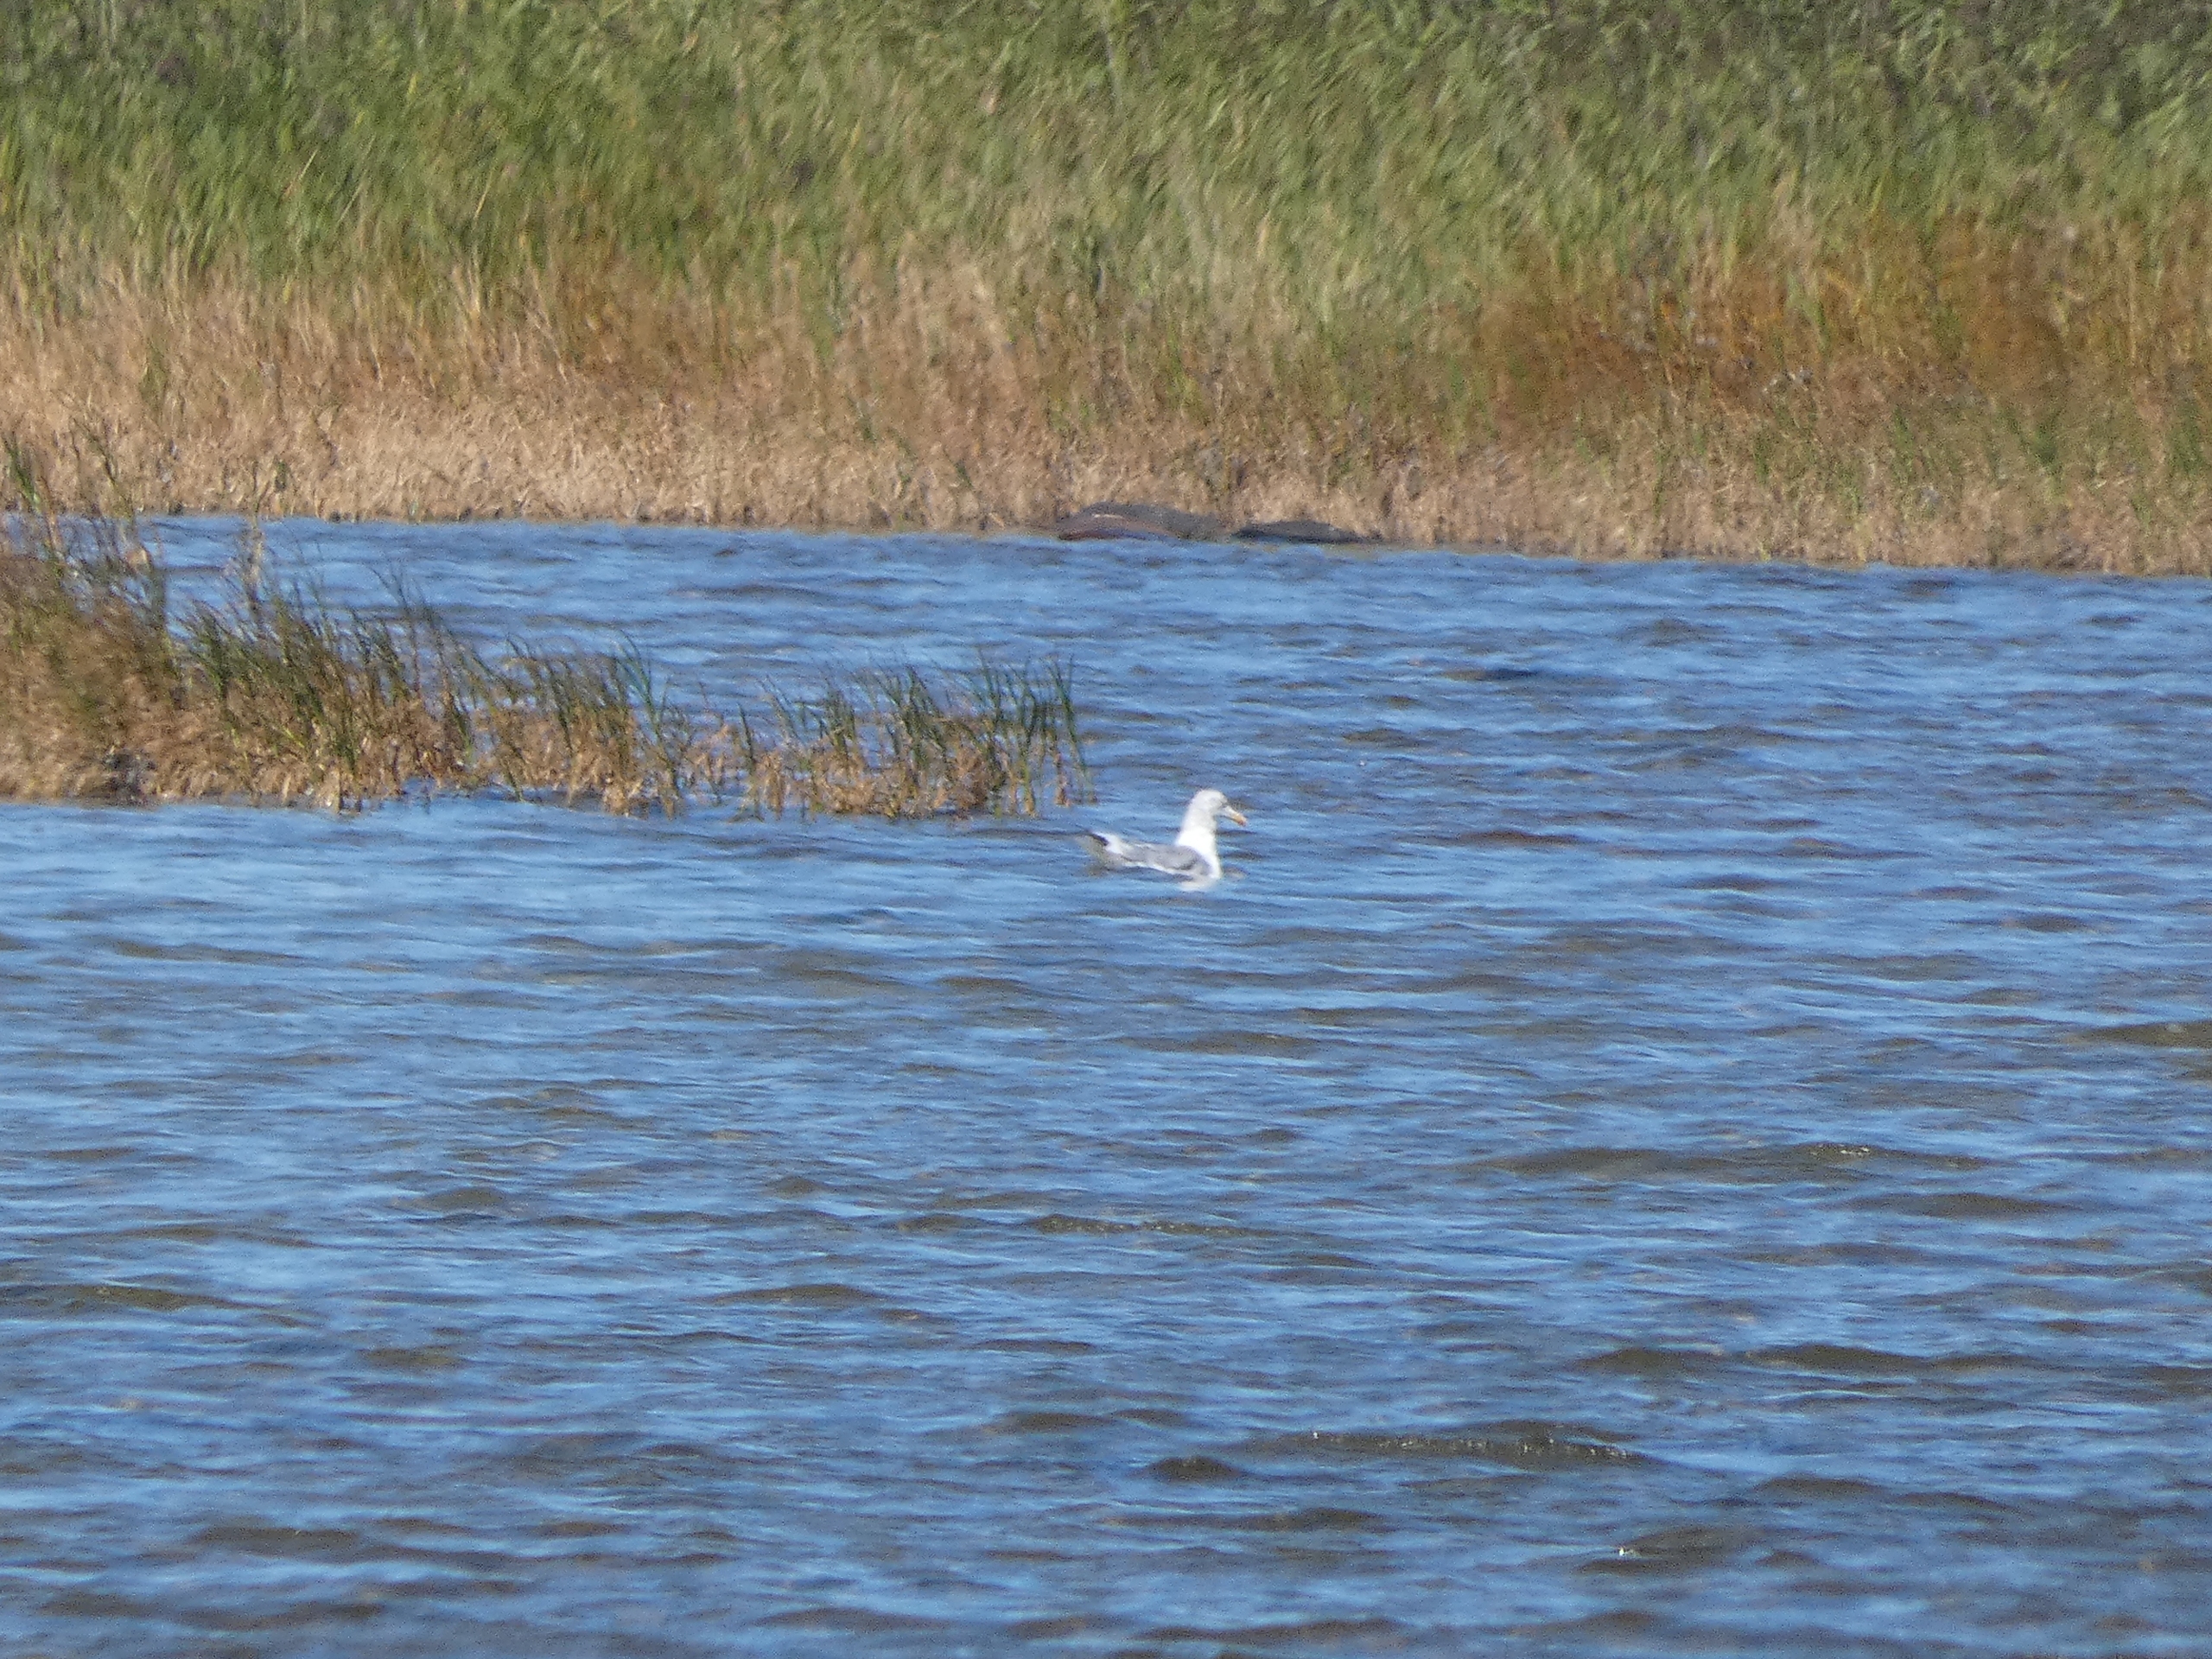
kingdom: Animalia
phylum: Chordata
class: Aves
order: Charadriiformes
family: Laridae
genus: Larus
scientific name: Larus argentatus
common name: Sølvmåge
